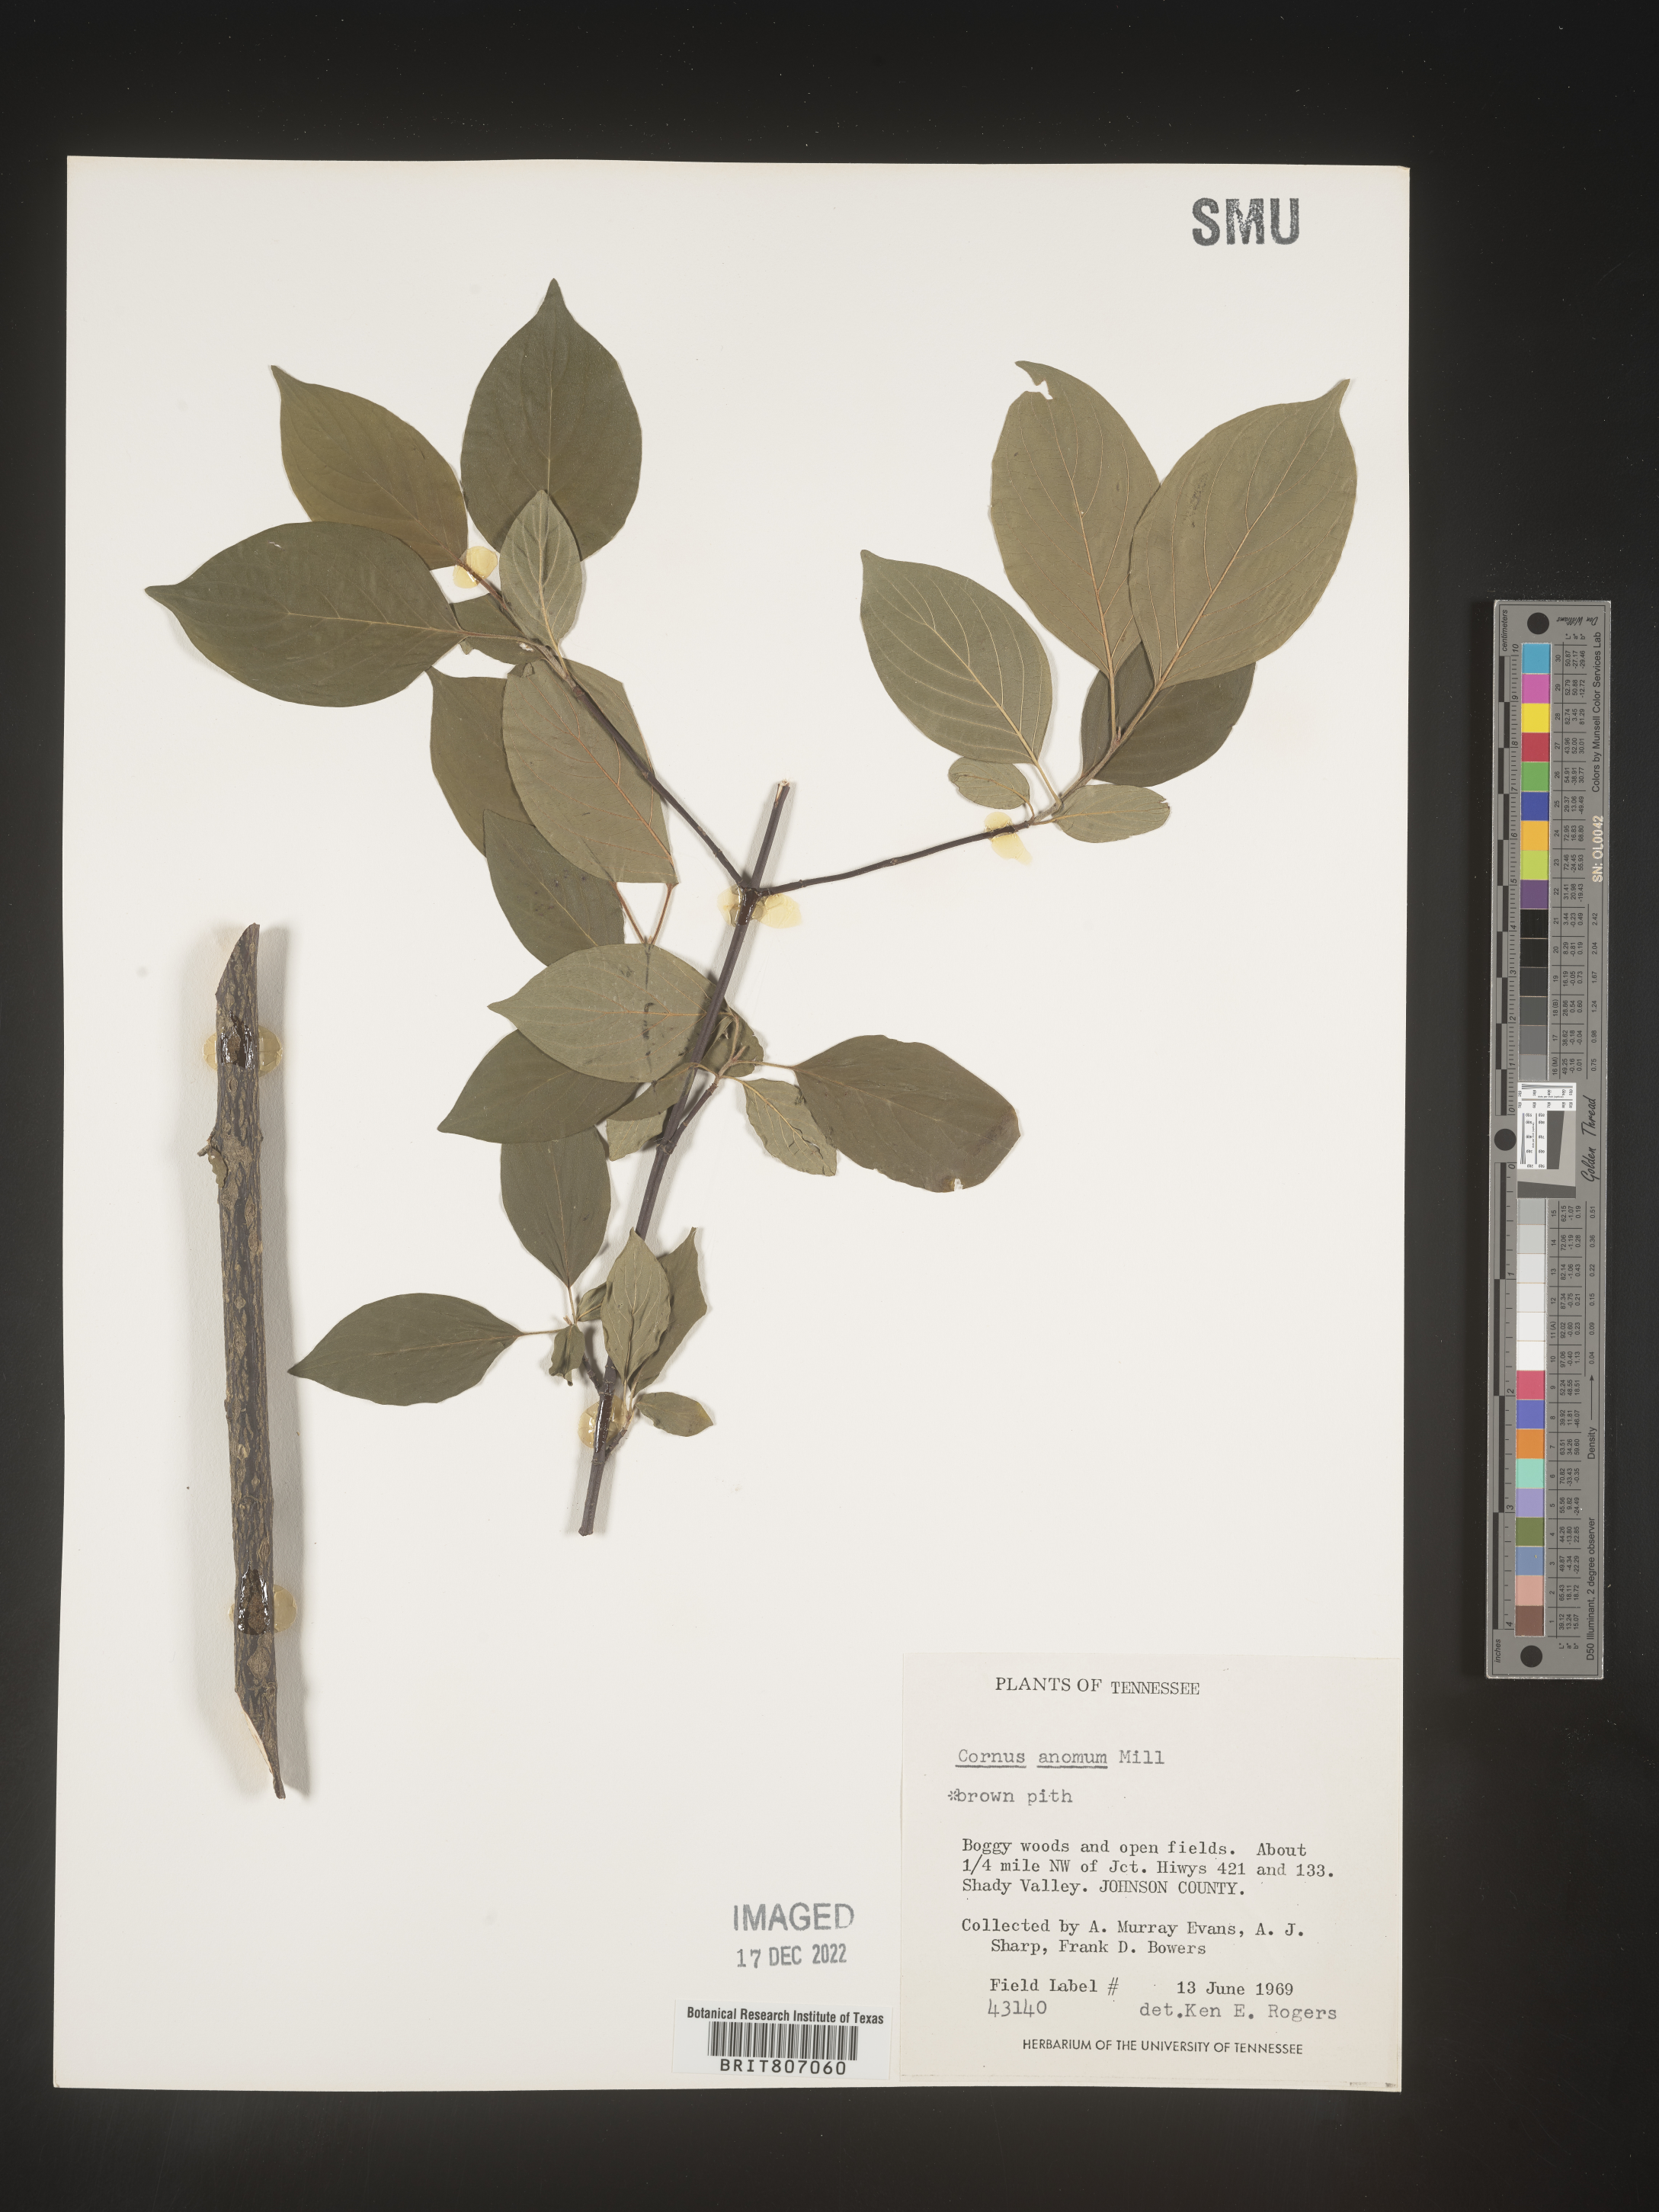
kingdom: Plantae
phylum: Tracheophyta
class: Magnoliopsida
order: Cornales
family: Cornaceae
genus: Cornus
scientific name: Cornus amomum
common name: Silky dogwood
